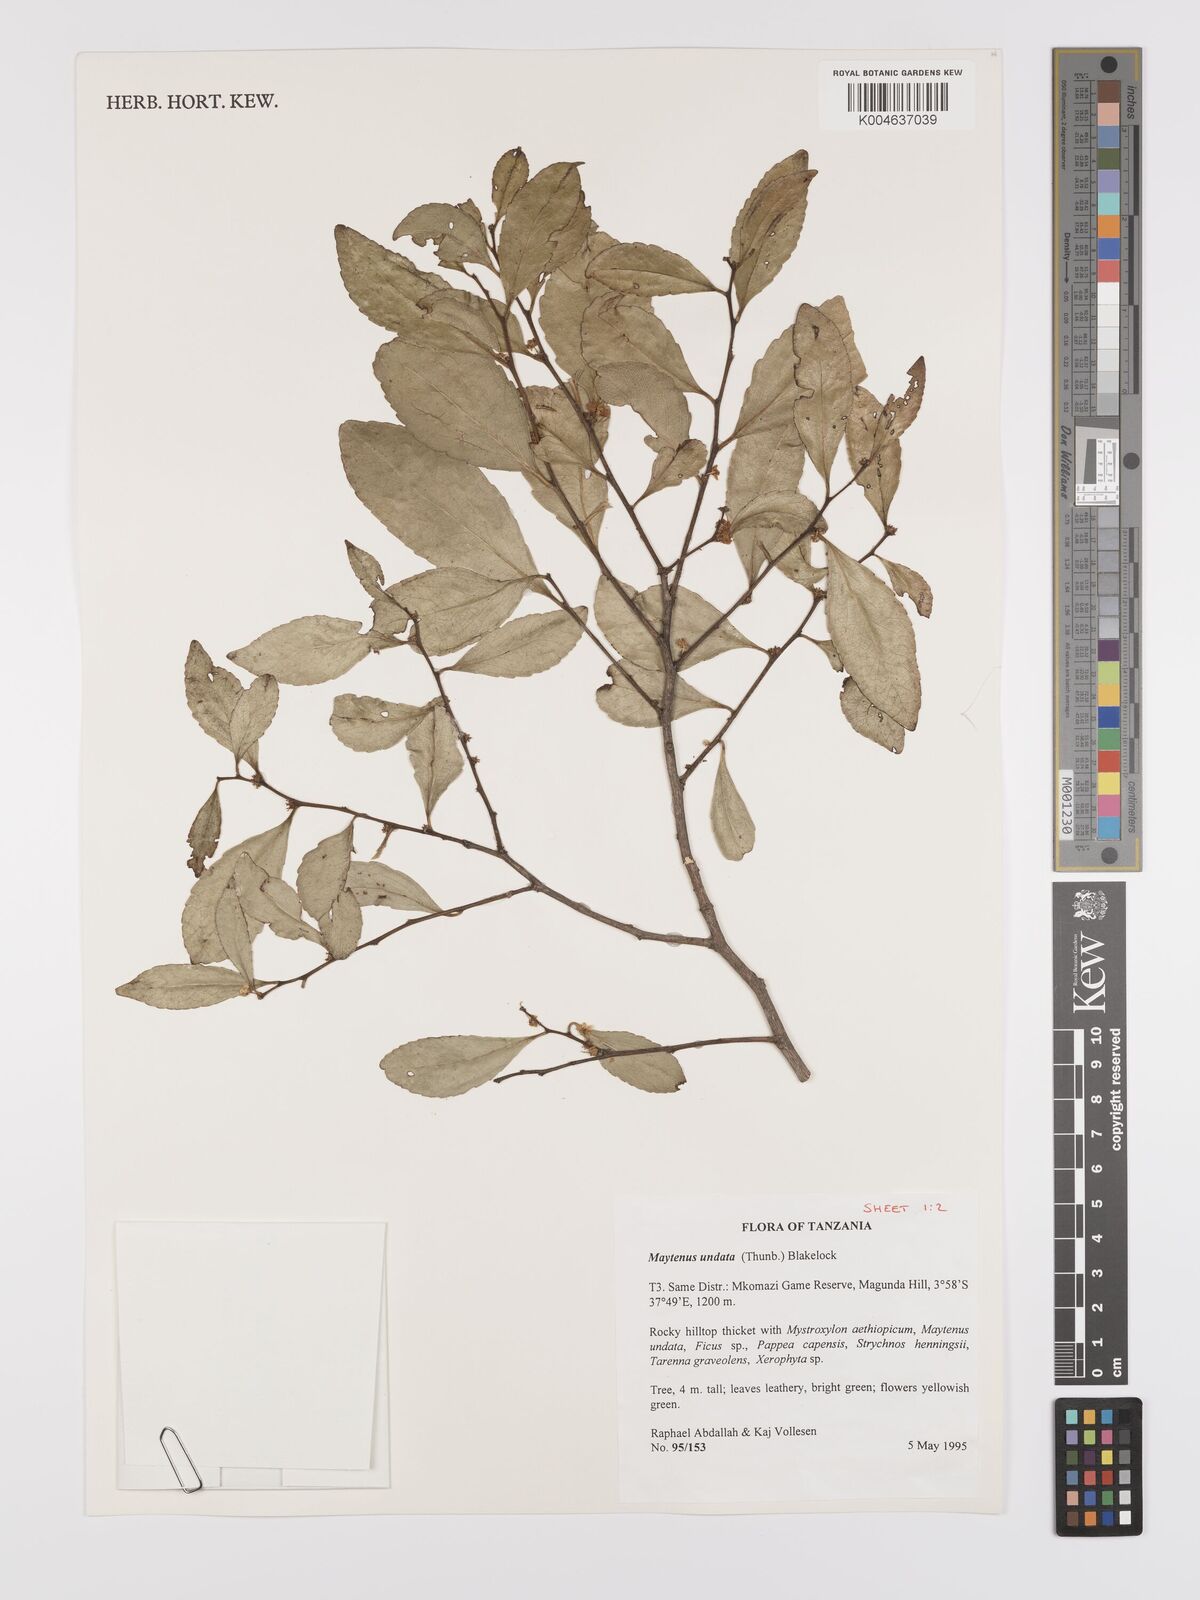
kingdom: Plantae
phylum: Tracheophyta
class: Magnoliopsida
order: Celastrales
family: Celastraceae
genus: Gymnosporia
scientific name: Gymnosporia undata
